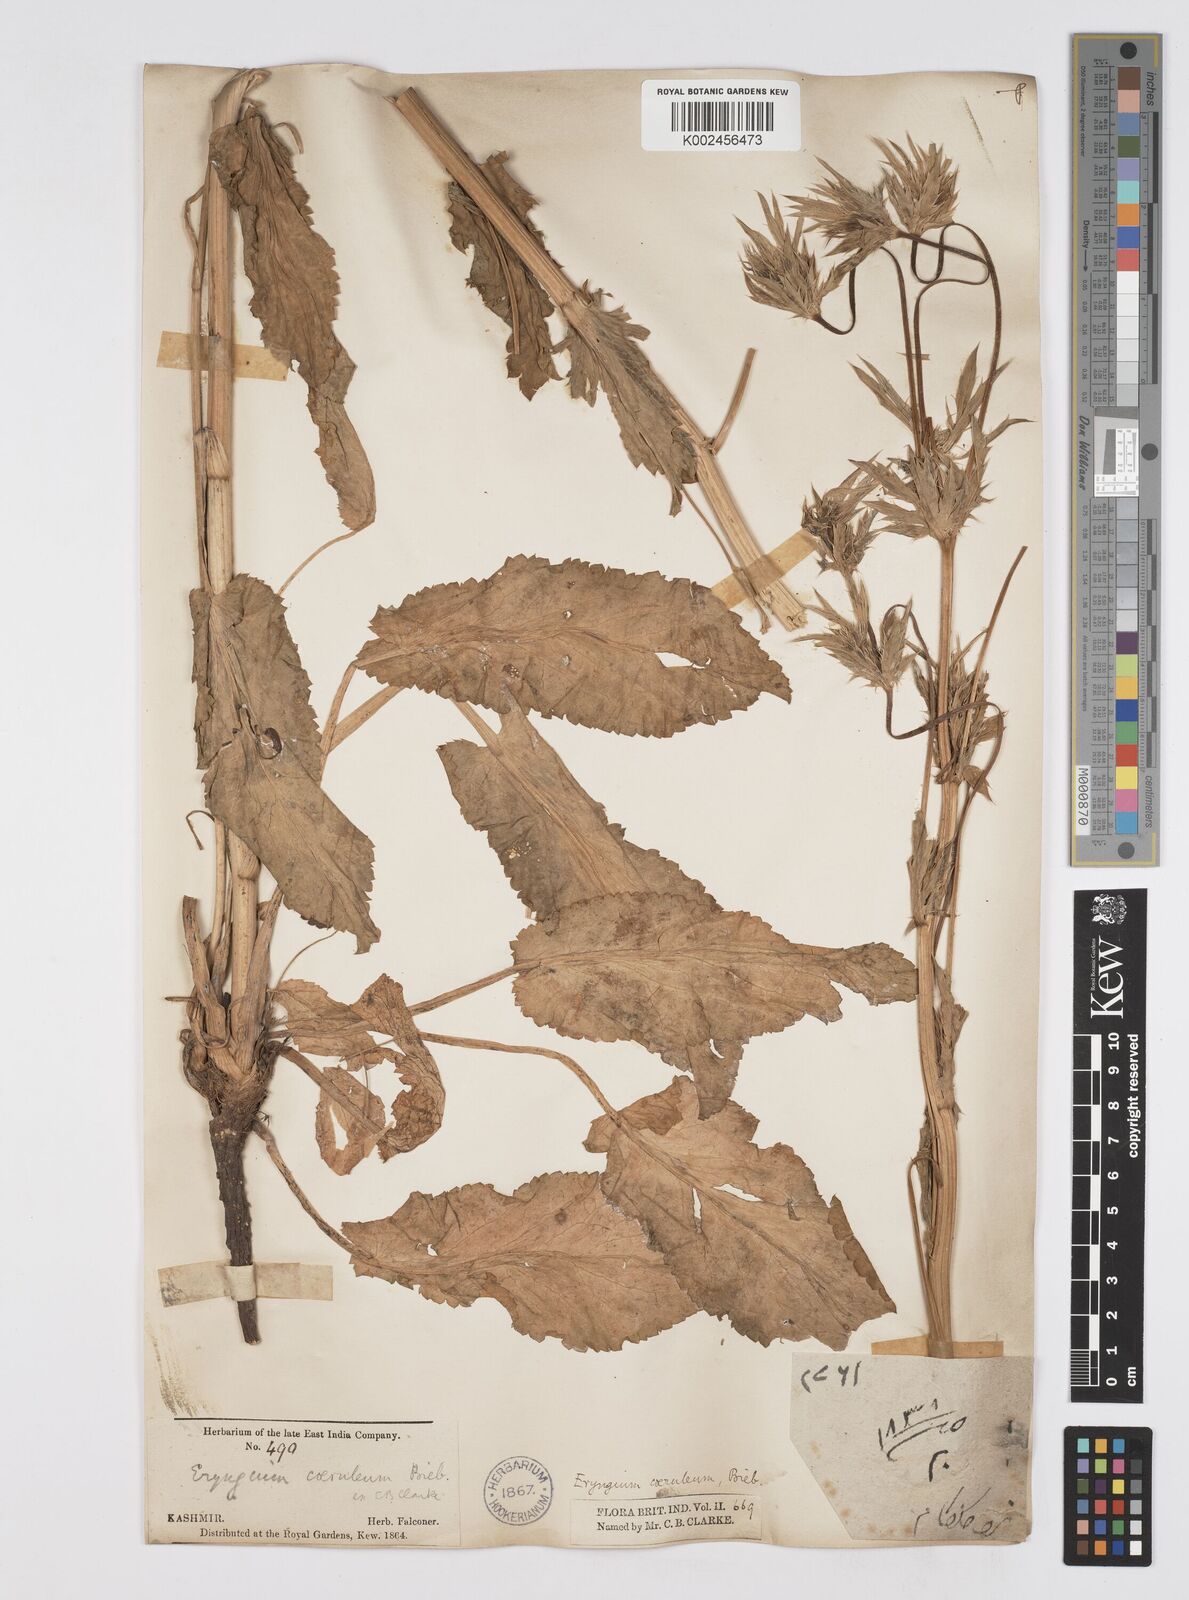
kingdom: Plantae
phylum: Tracheophyta
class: Magnoliopsida
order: Apiales
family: Apiaceae
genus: Eryngium
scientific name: Eryngium caeruleum
